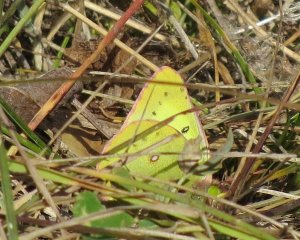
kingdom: Animalia
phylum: Arthropoda
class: Insecta
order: Lepidoptera
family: Pieridae
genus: Colias
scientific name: Colias philodice
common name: Clouded Sulphur
